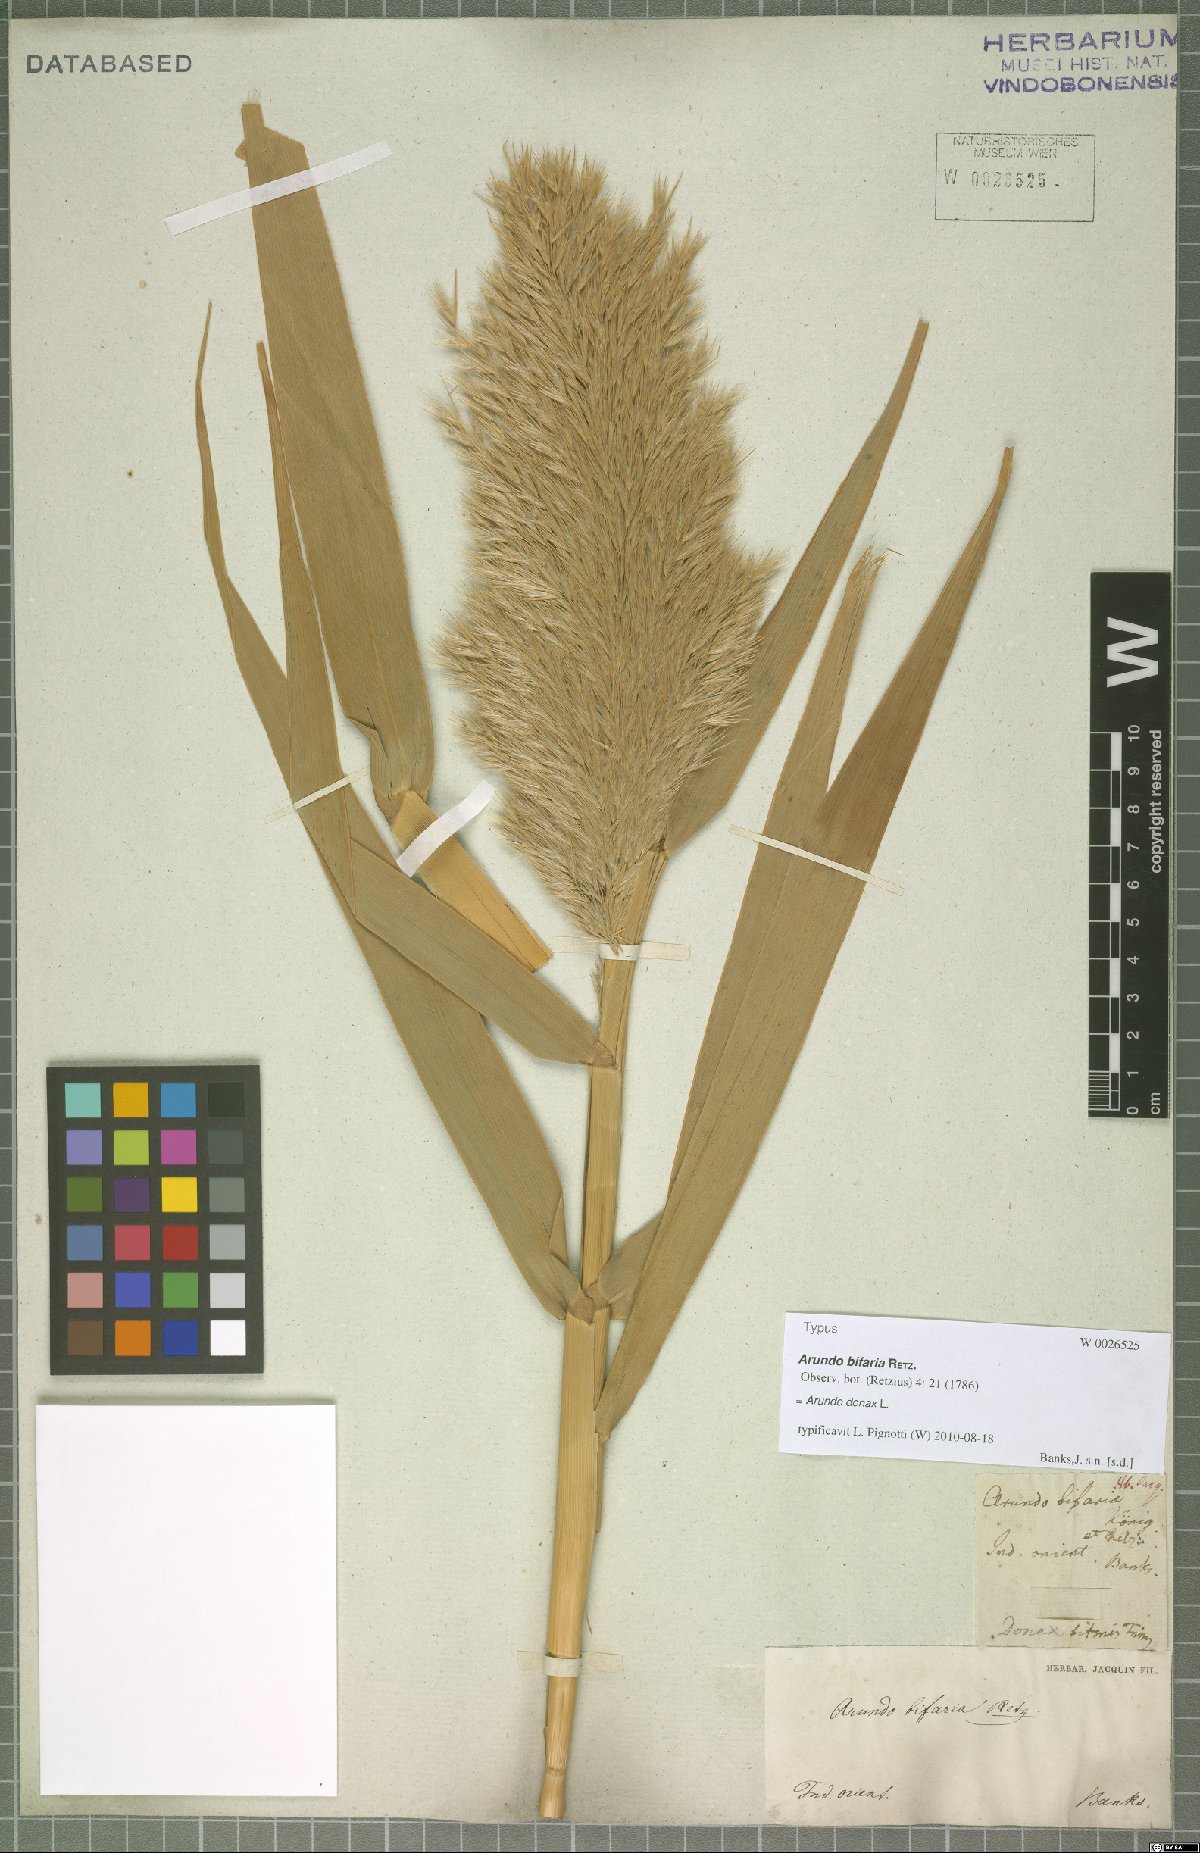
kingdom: Plantae
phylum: Tracheophyta
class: Liliopsida
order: Poales
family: Poaceae
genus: Arundo
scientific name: Arundo donax
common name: Giant reed
